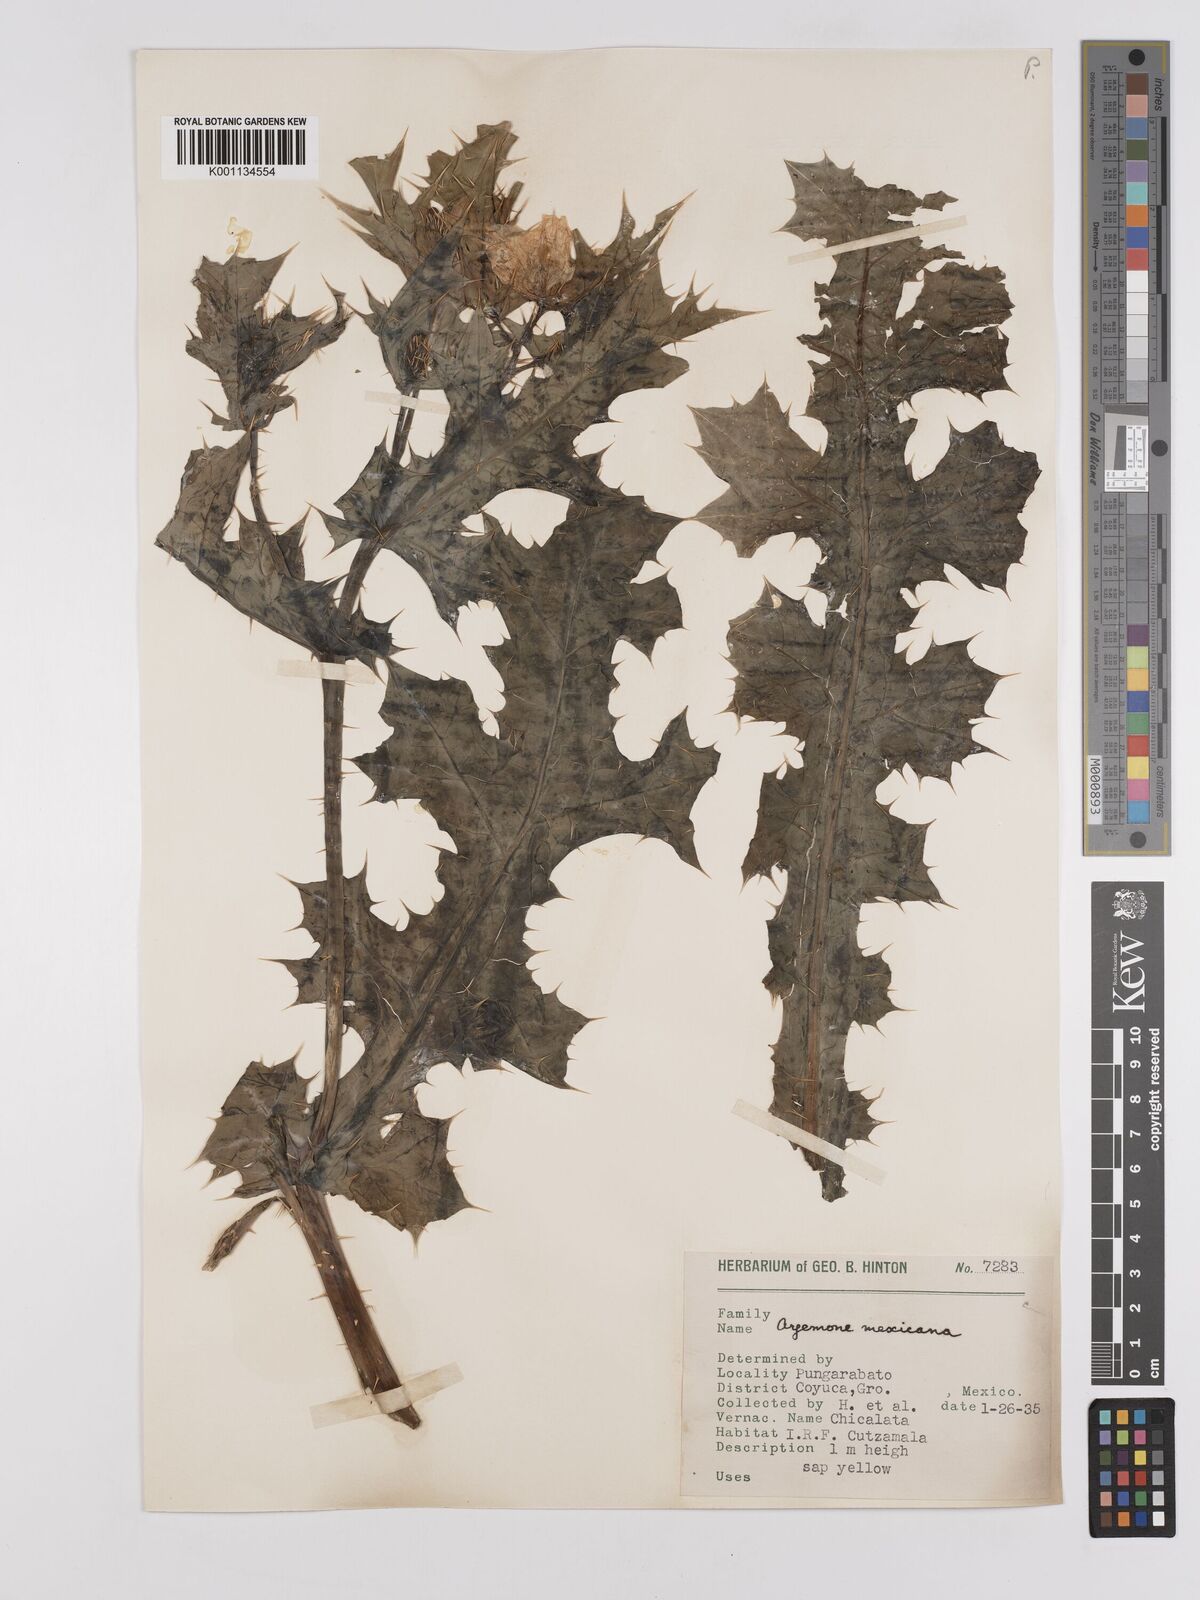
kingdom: Plantae
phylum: Tracheophyta
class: Magnoliopsida
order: Ranunculales
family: Papaveraceae
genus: Argemone
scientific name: Argemone mexicana
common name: Mexican poppy
